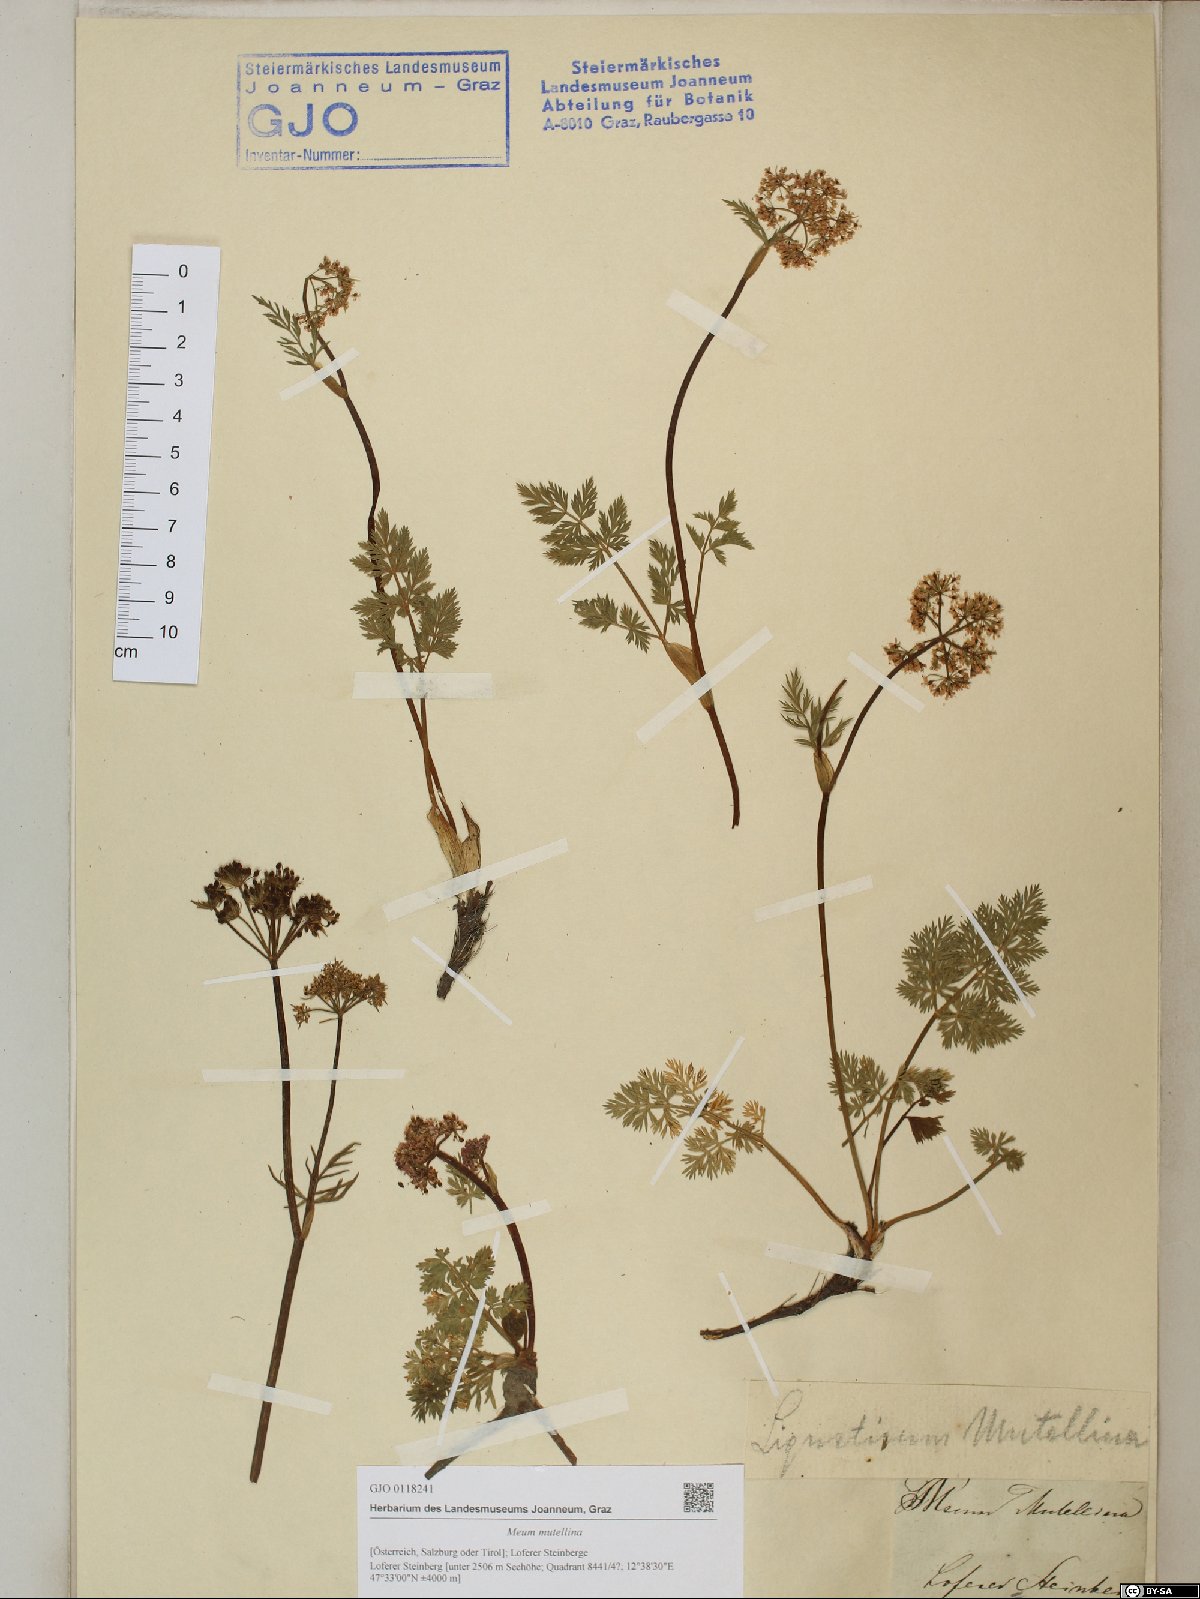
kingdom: Plantae
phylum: Tracheophyta
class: Magnoliopsida
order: Apiales
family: Apiaceae
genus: Mutellina
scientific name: Mutellina adonidifolia
